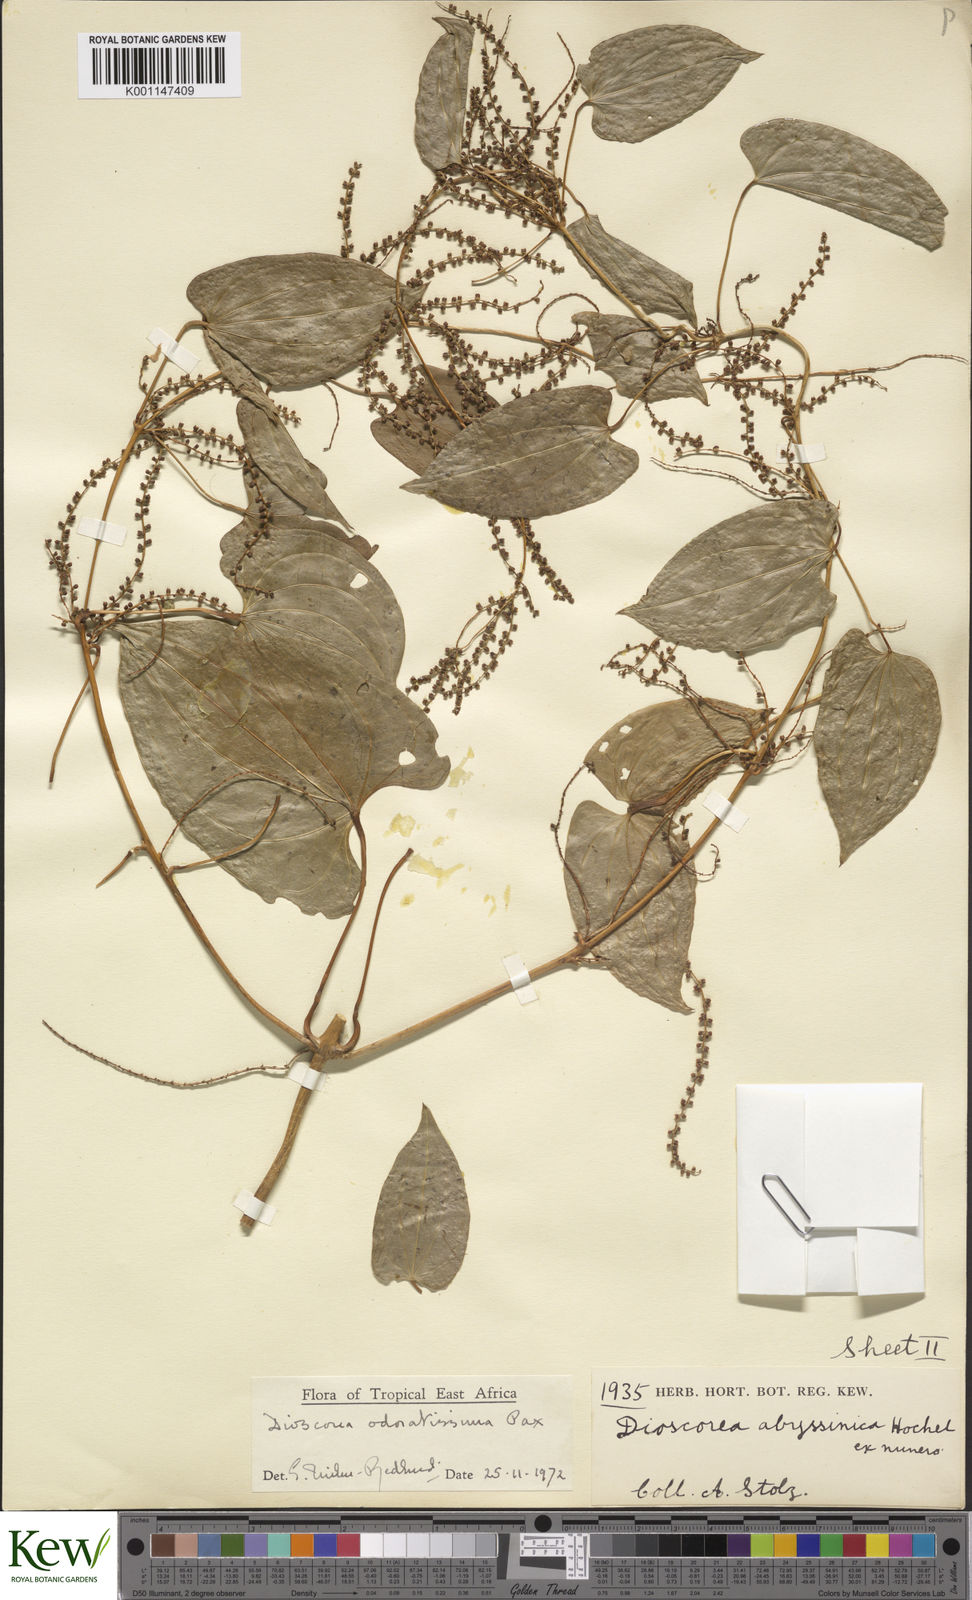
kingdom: Plantae
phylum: Tracheophyta
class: Liliopsida
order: Dioscoreales
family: Dioscoreaceae
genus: Dioscorea
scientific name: Dioscorea praehensilis
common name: Bush yam
